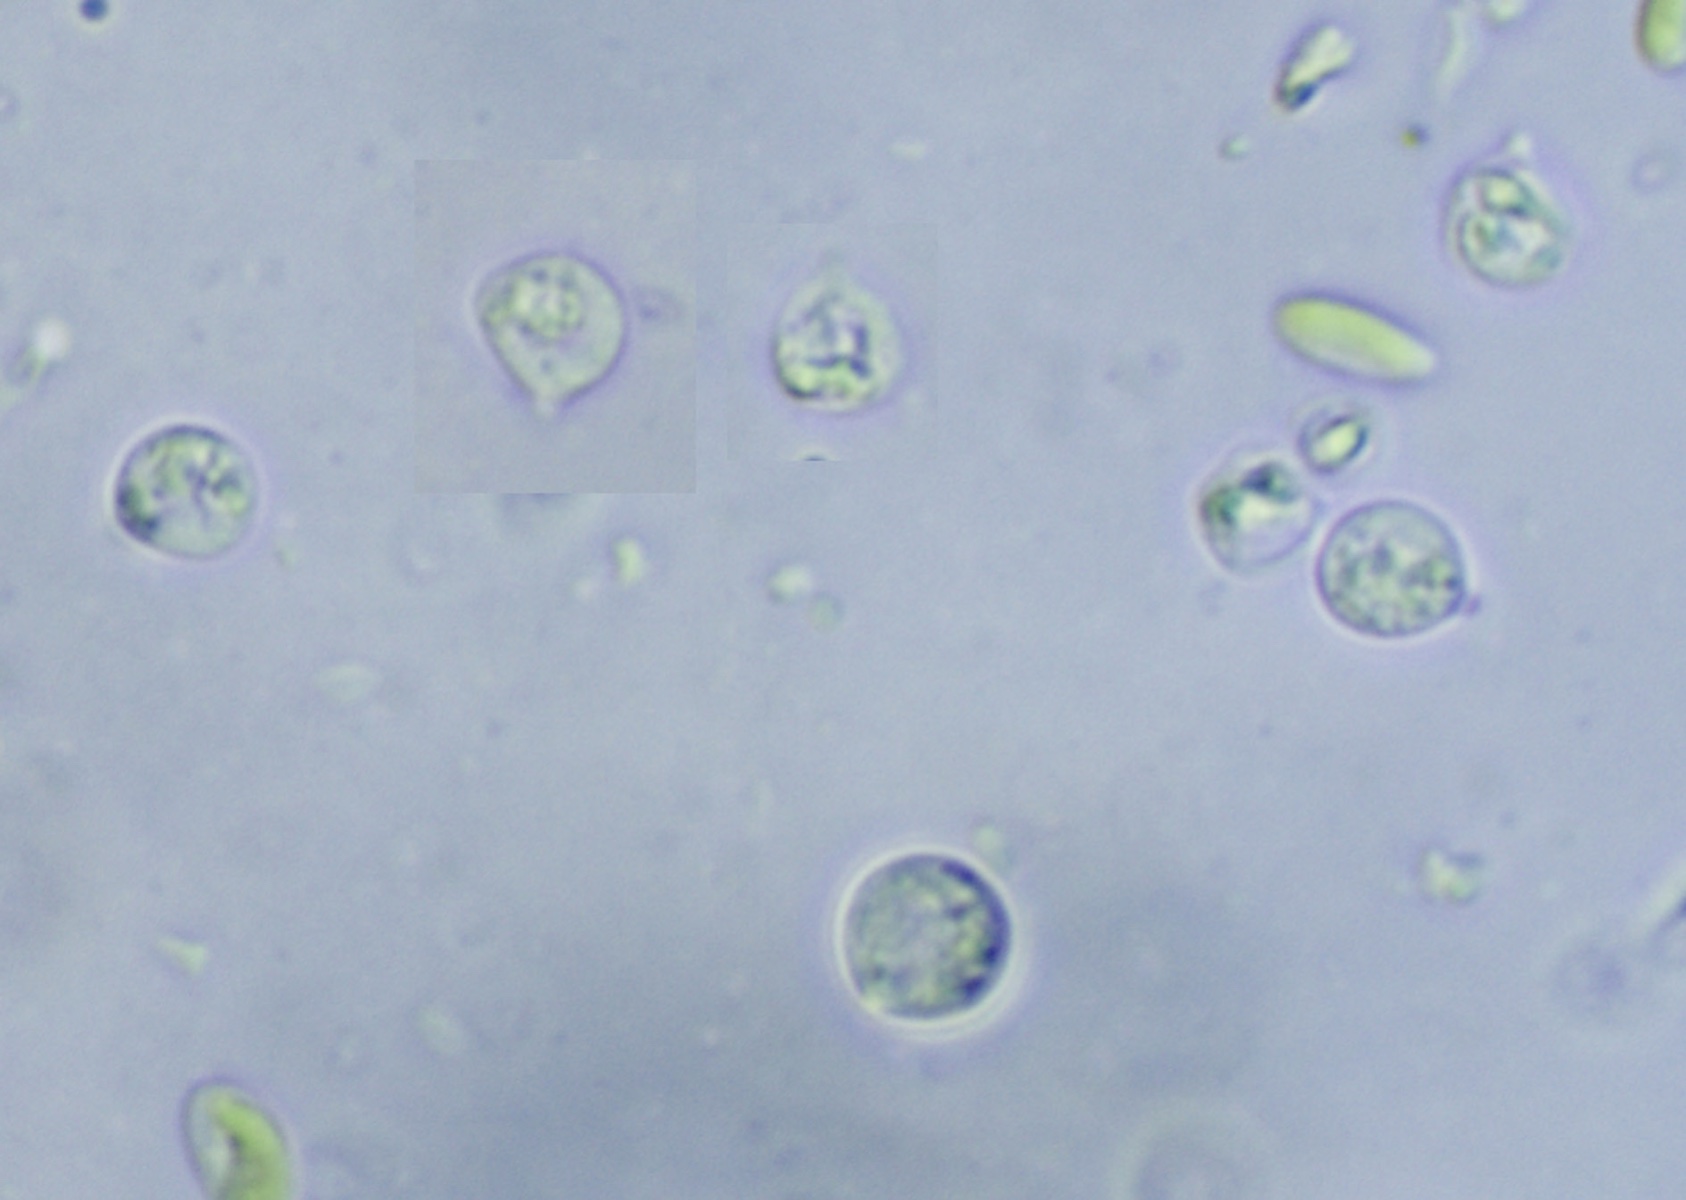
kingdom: Fungi
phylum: Basidiomycota
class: Agaricomycetes
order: Trechisporales
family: Hydnodontaceae
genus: Brevicellicium
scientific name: Brevicellicium olivascens
